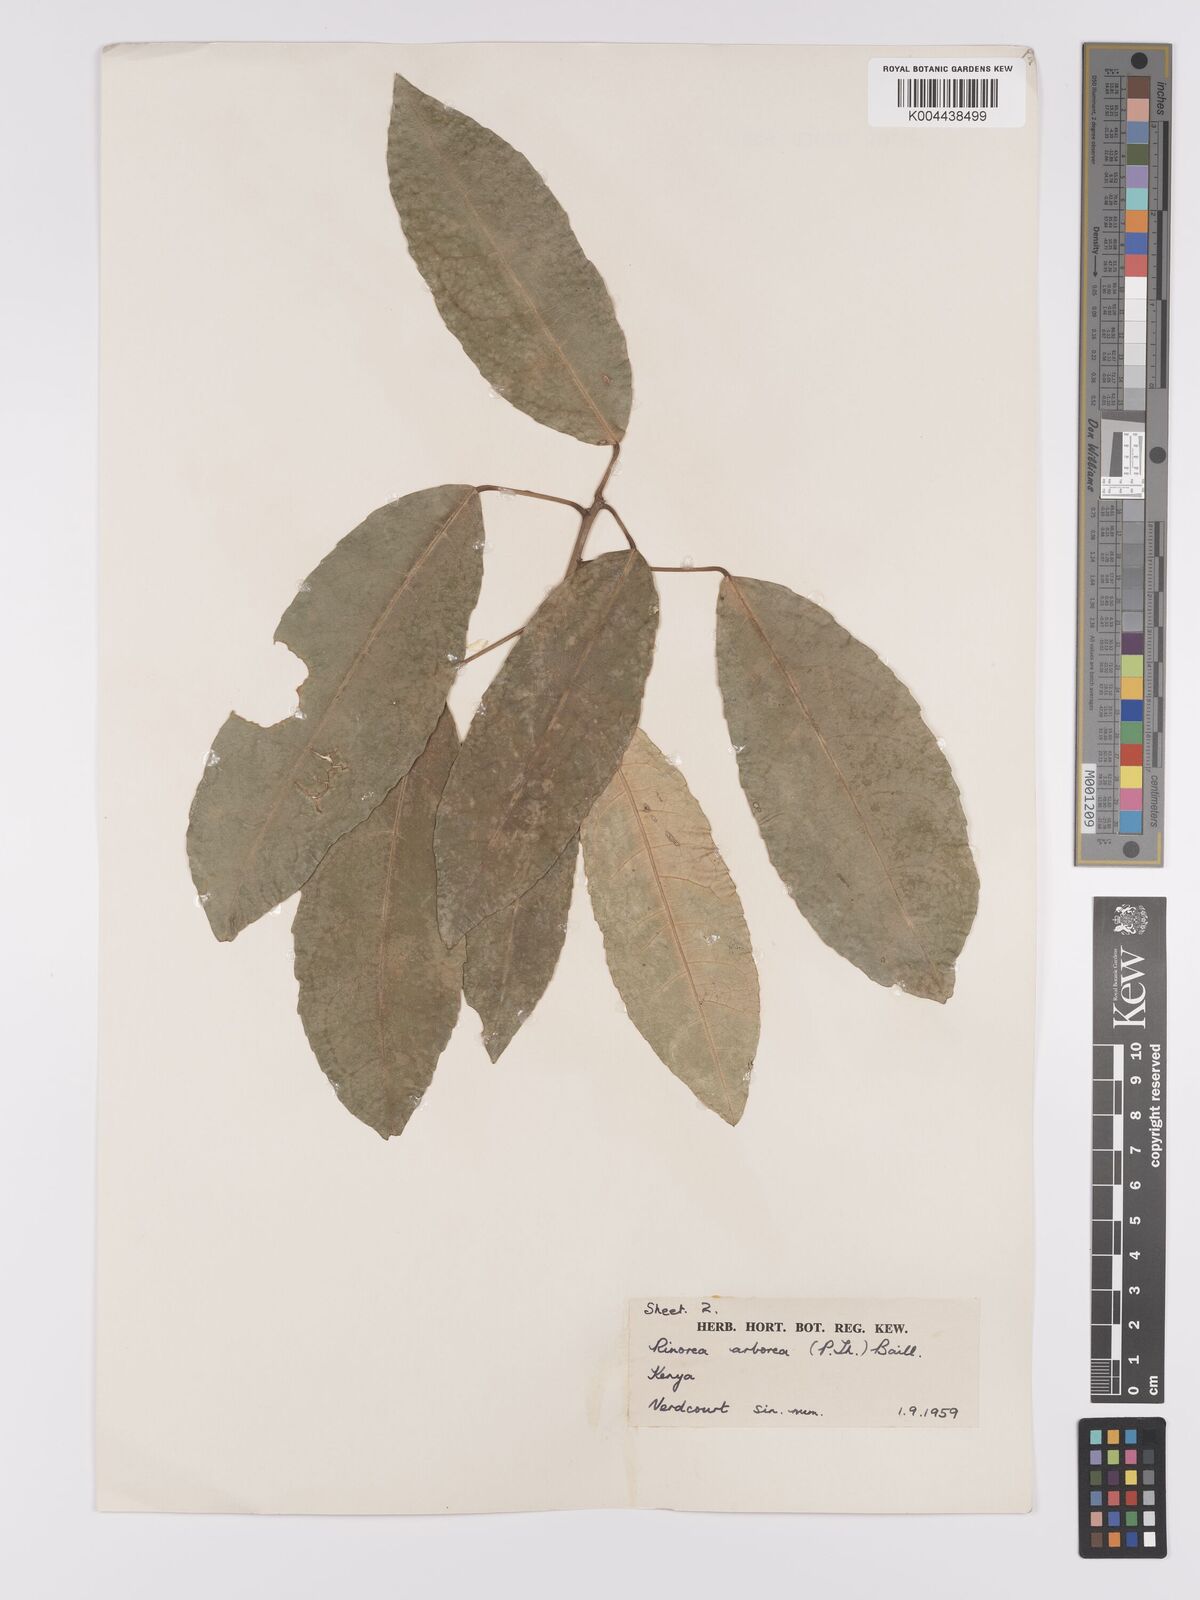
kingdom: Plantae
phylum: Tracheophyta
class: Magnoliopsida
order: Malpighiales
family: Violaceae
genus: Rinorea
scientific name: Rinorea arborea
